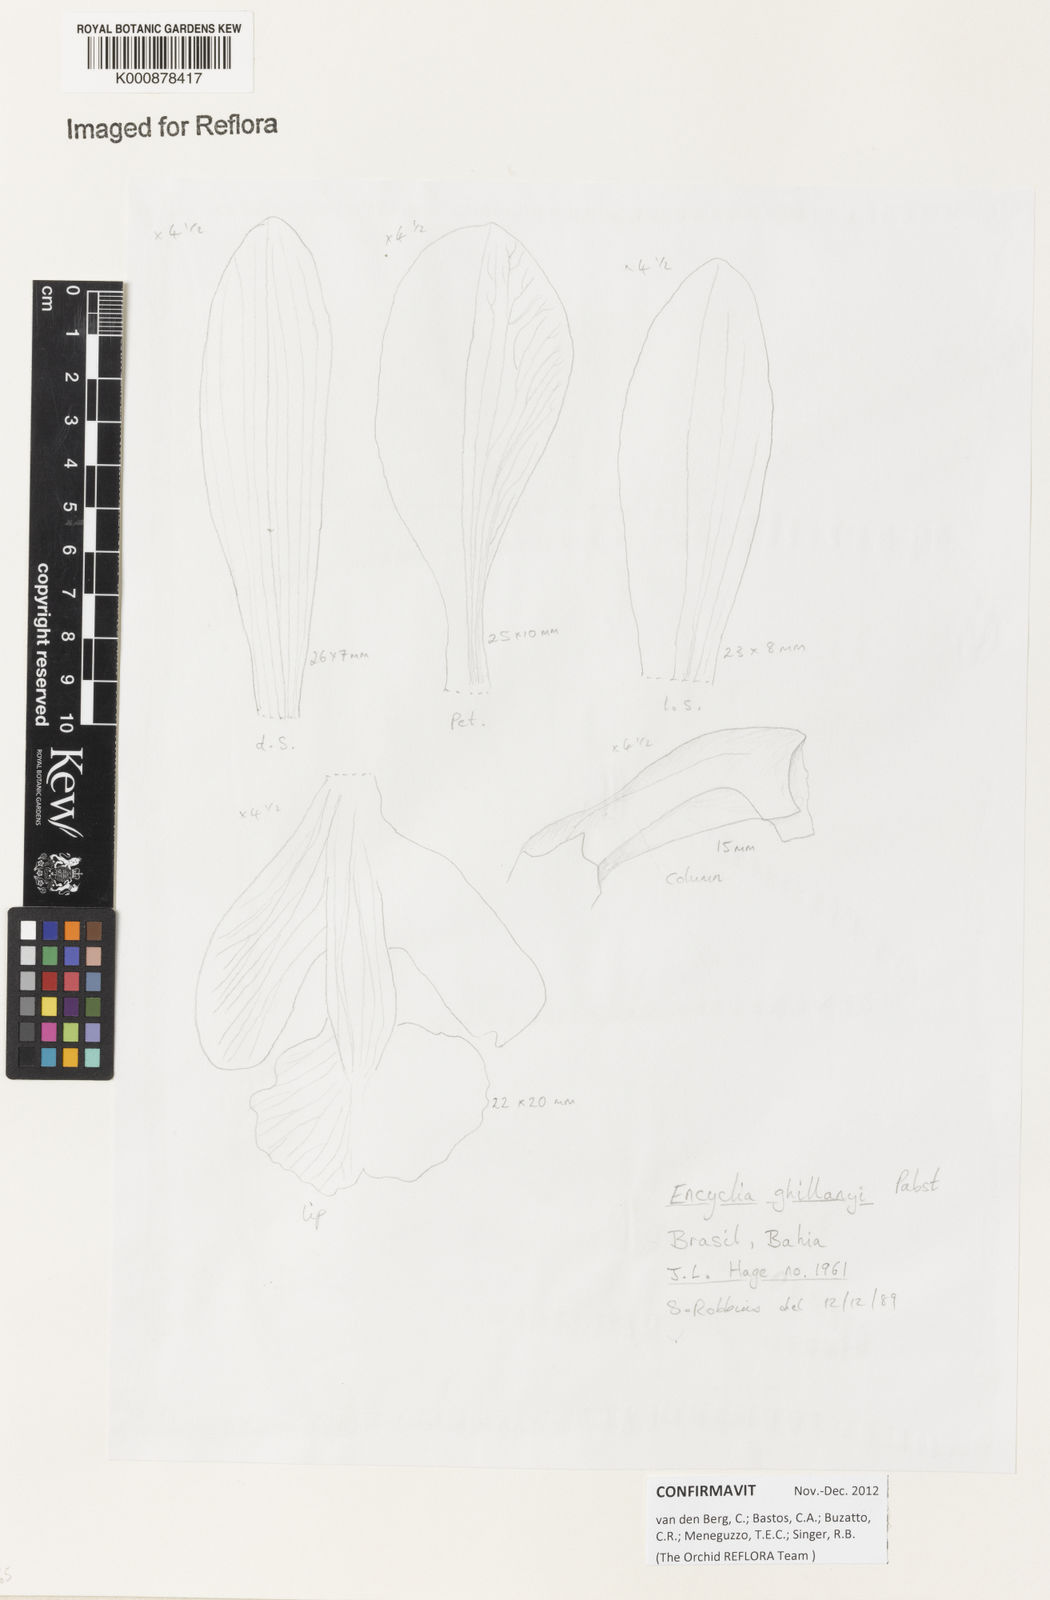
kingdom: Plantae
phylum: Tracheophyta
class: Liliopsida
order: Asparagales
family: Orchidaceae
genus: Encyclia
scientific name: Encyclia jenischiana
